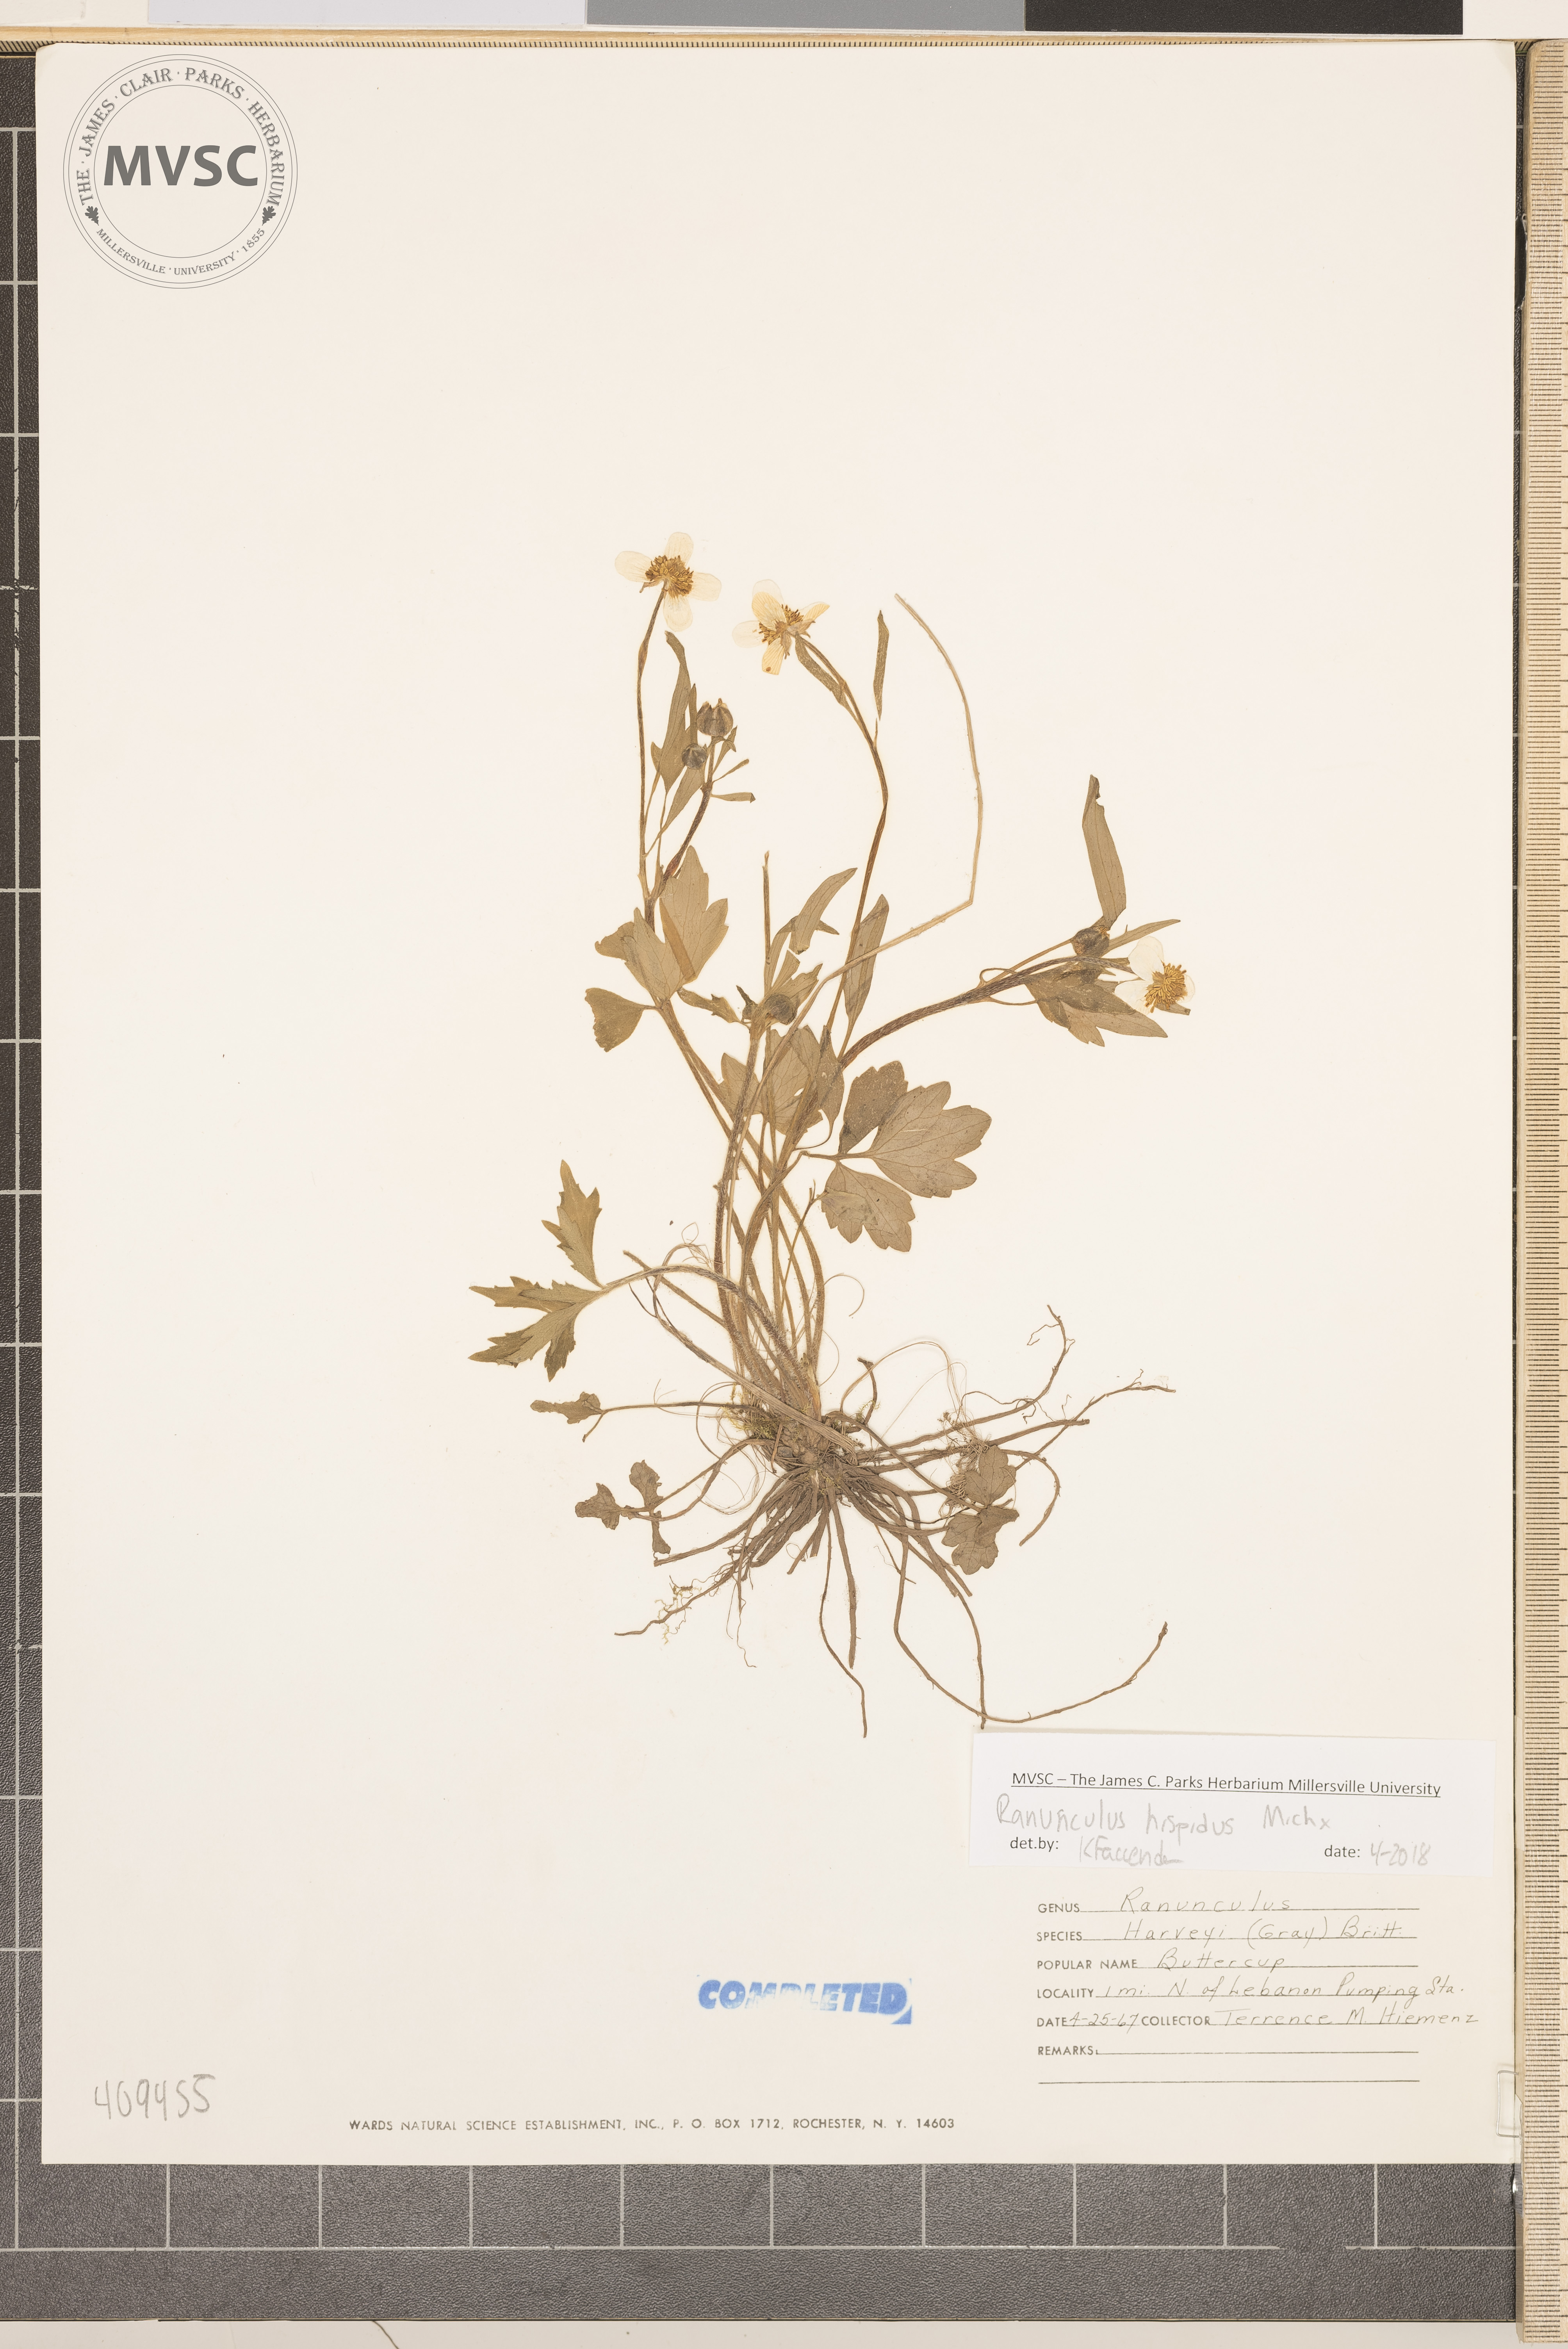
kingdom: Plantae
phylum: Tracheophyta
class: Magnoliopsida
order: Ranunculales
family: Ranunculaceae
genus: Ranunculus
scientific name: Ranunculus hispidus
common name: Bristly buttercup
